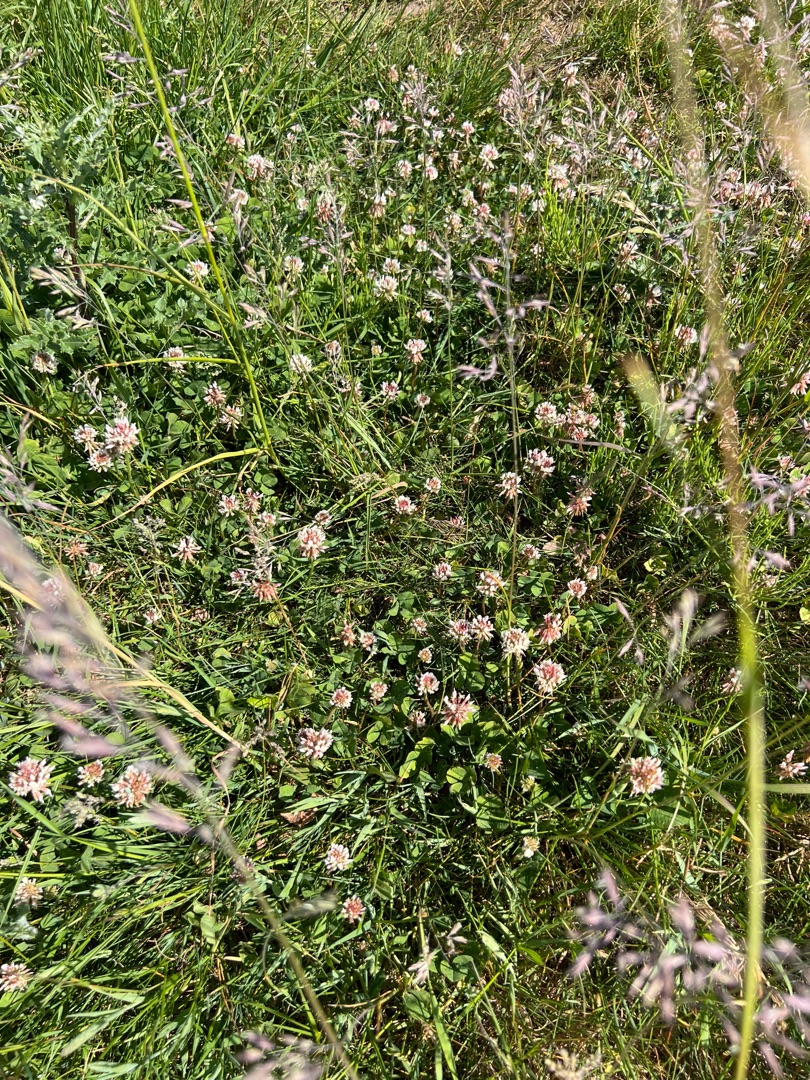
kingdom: Plantae
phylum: Tracheophyta
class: Magnoliopsida
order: Fabales
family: Fabaceae
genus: Trifolium
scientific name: Trifolium repens
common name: Hvid-kløver
